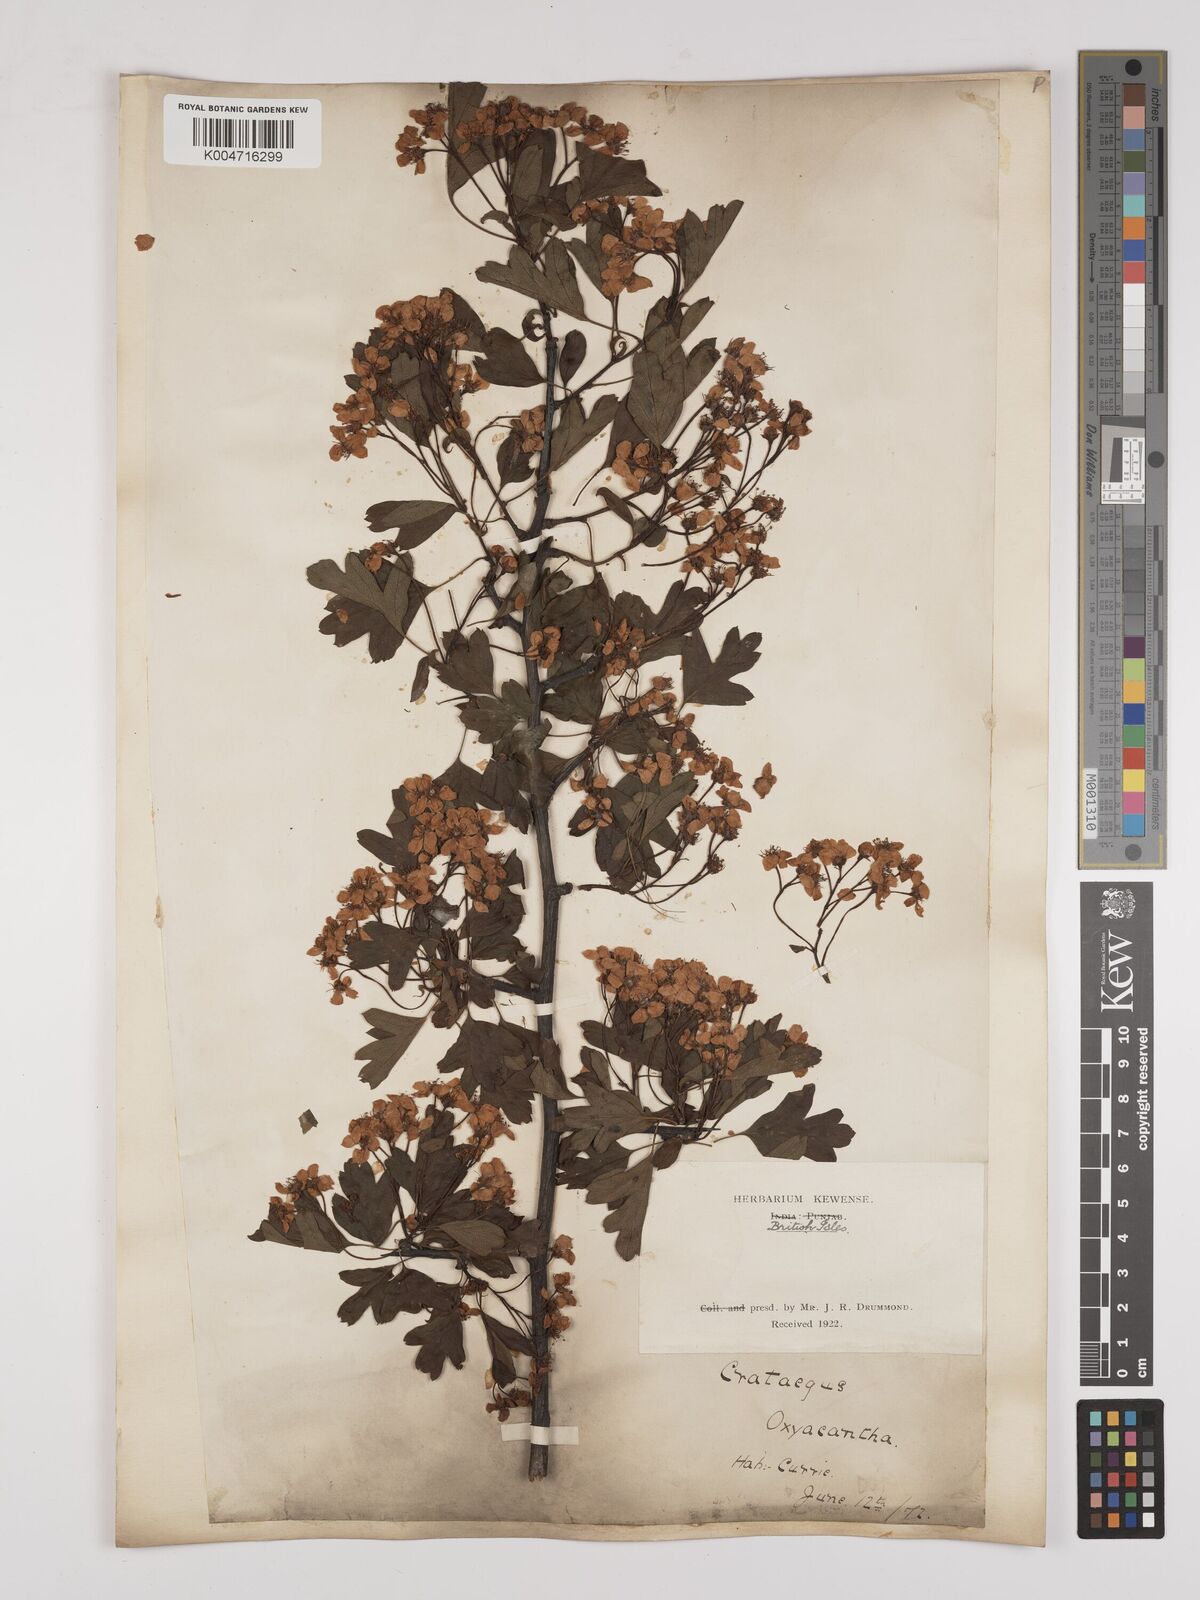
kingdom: Plantae
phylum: Tracheophyta
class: Magnoliopsida
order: Rosales
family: Rosaceae
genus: Crataegus
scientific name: Crataegus monogyna
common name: Hawthorn
